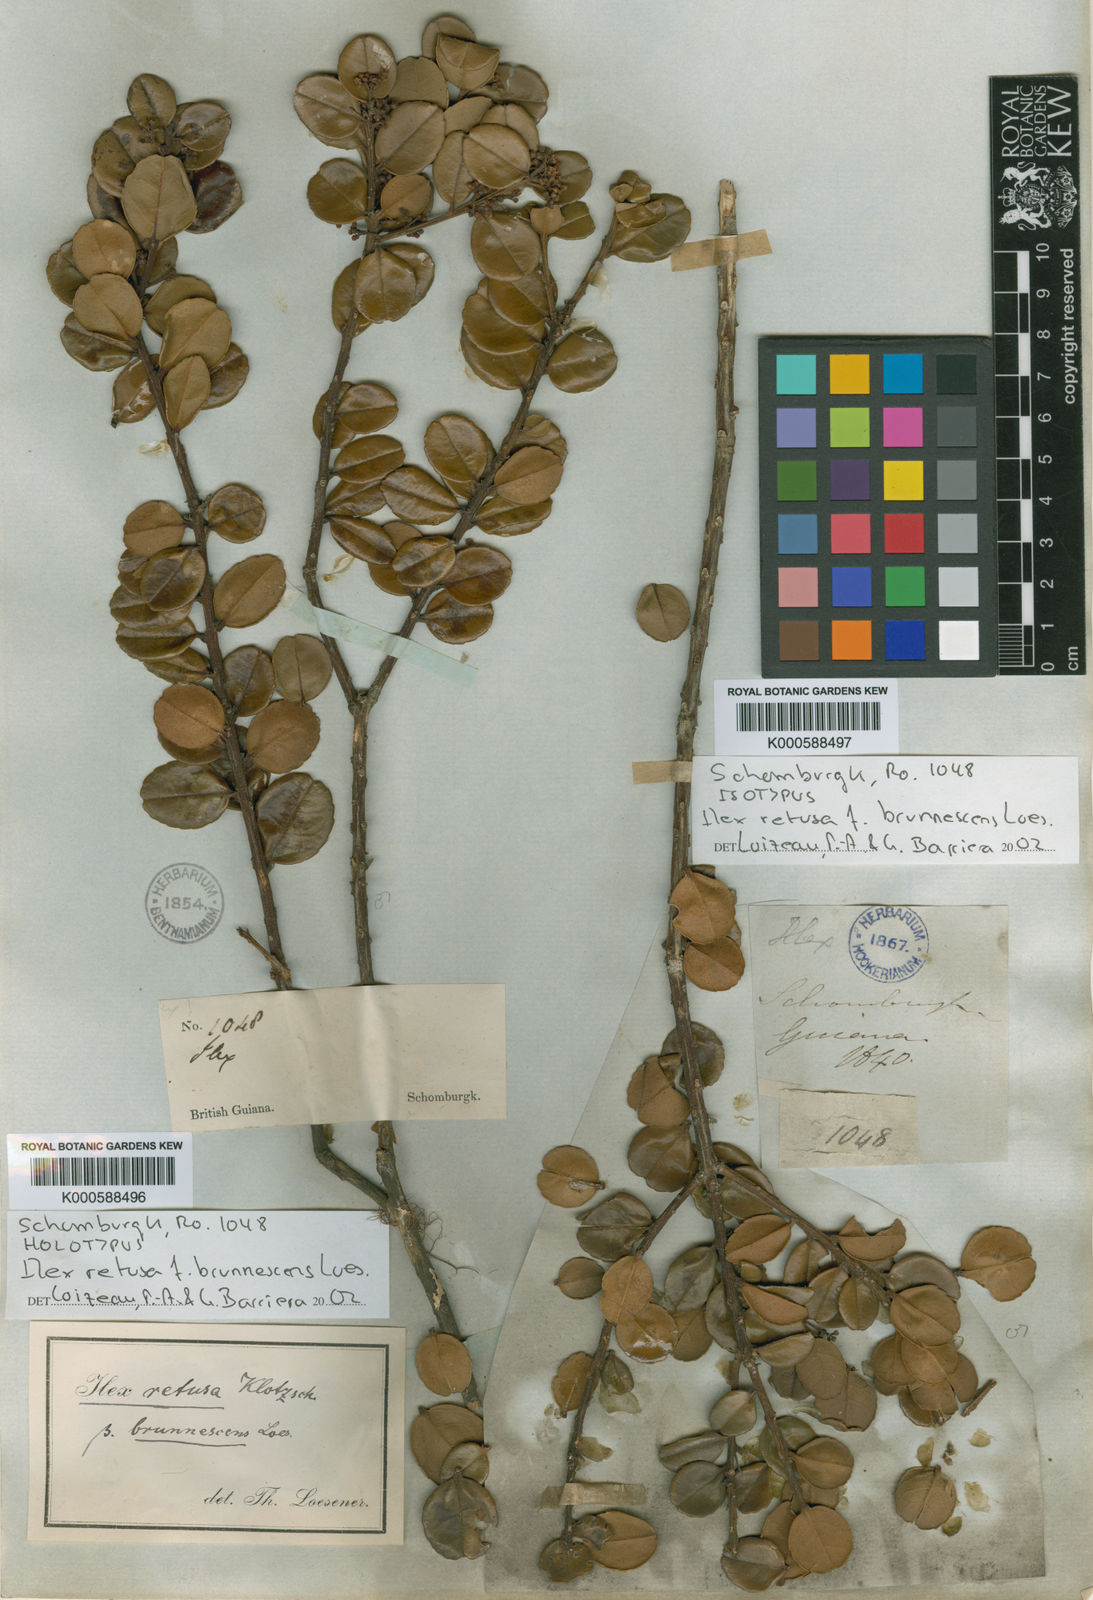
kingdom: Plantae
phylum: Tracheophyta
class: Magnoliopsida
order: Aquifoliales
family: Aquifoliaceae
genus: Ilex
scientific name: Ilex
